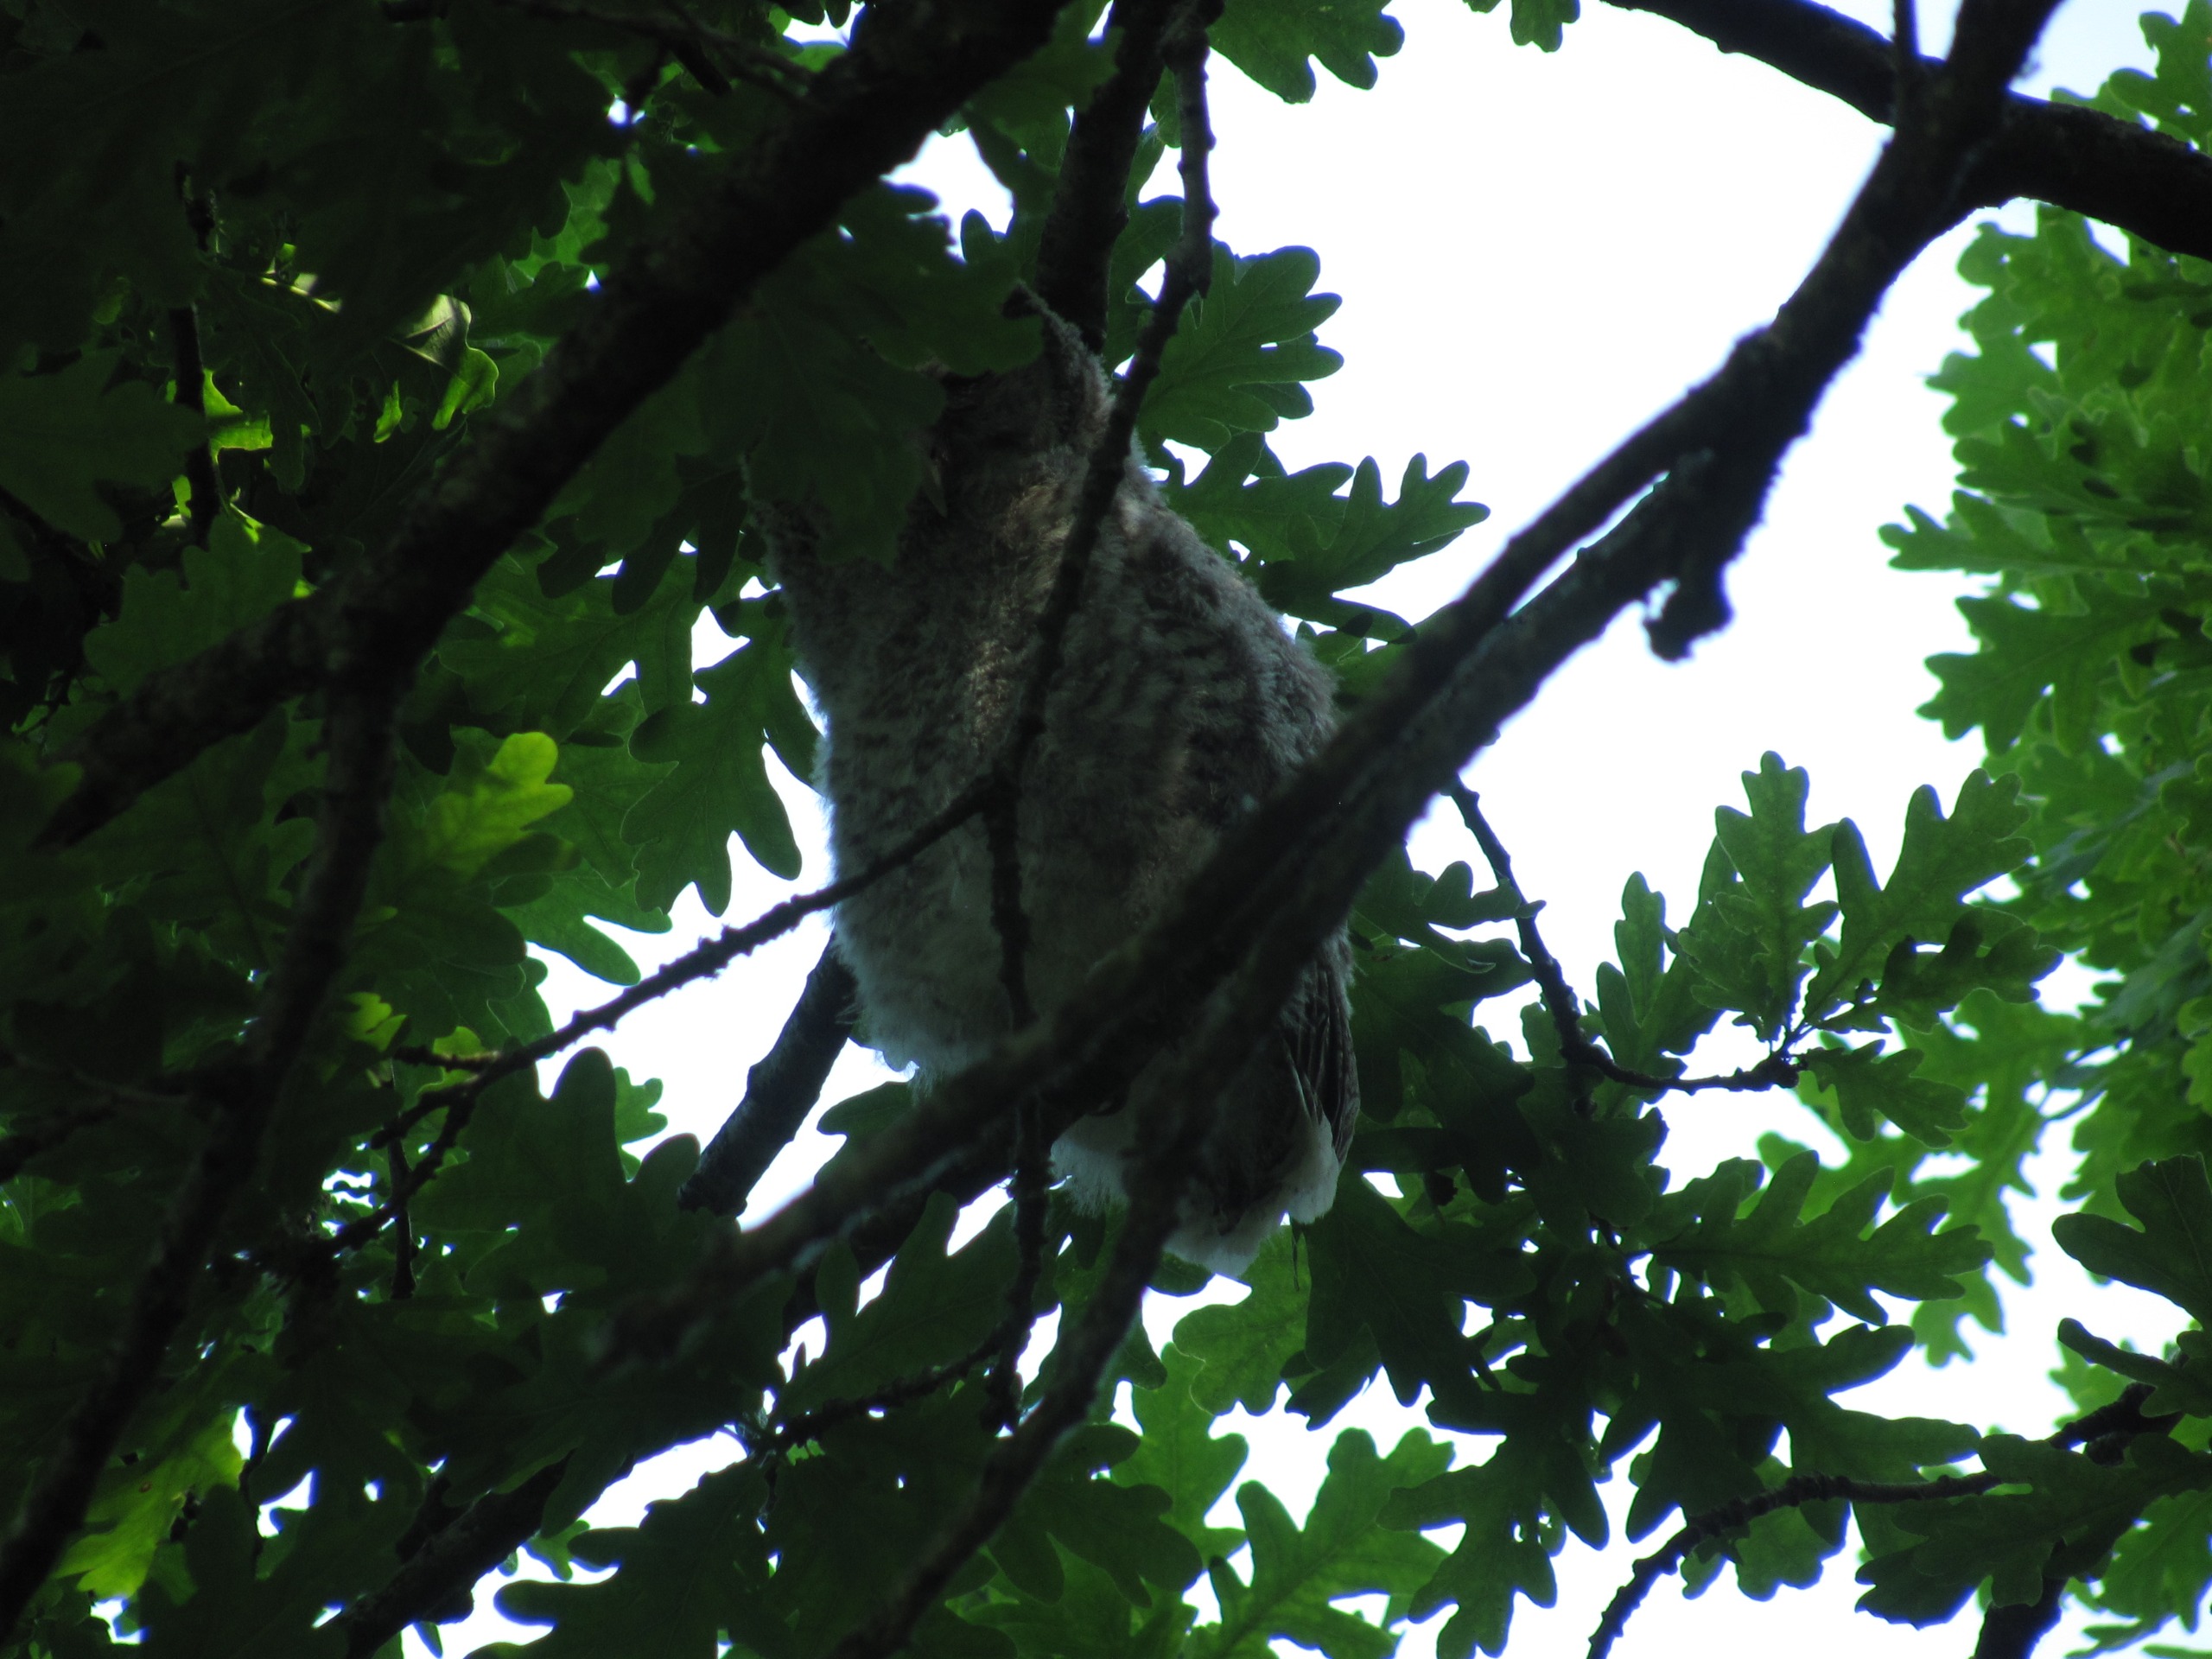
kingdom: Animalia
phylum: Chordata
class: Aves
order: Strigiformes
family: Strigidae
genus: Strix
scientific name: Strix aluco
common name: Natugle
